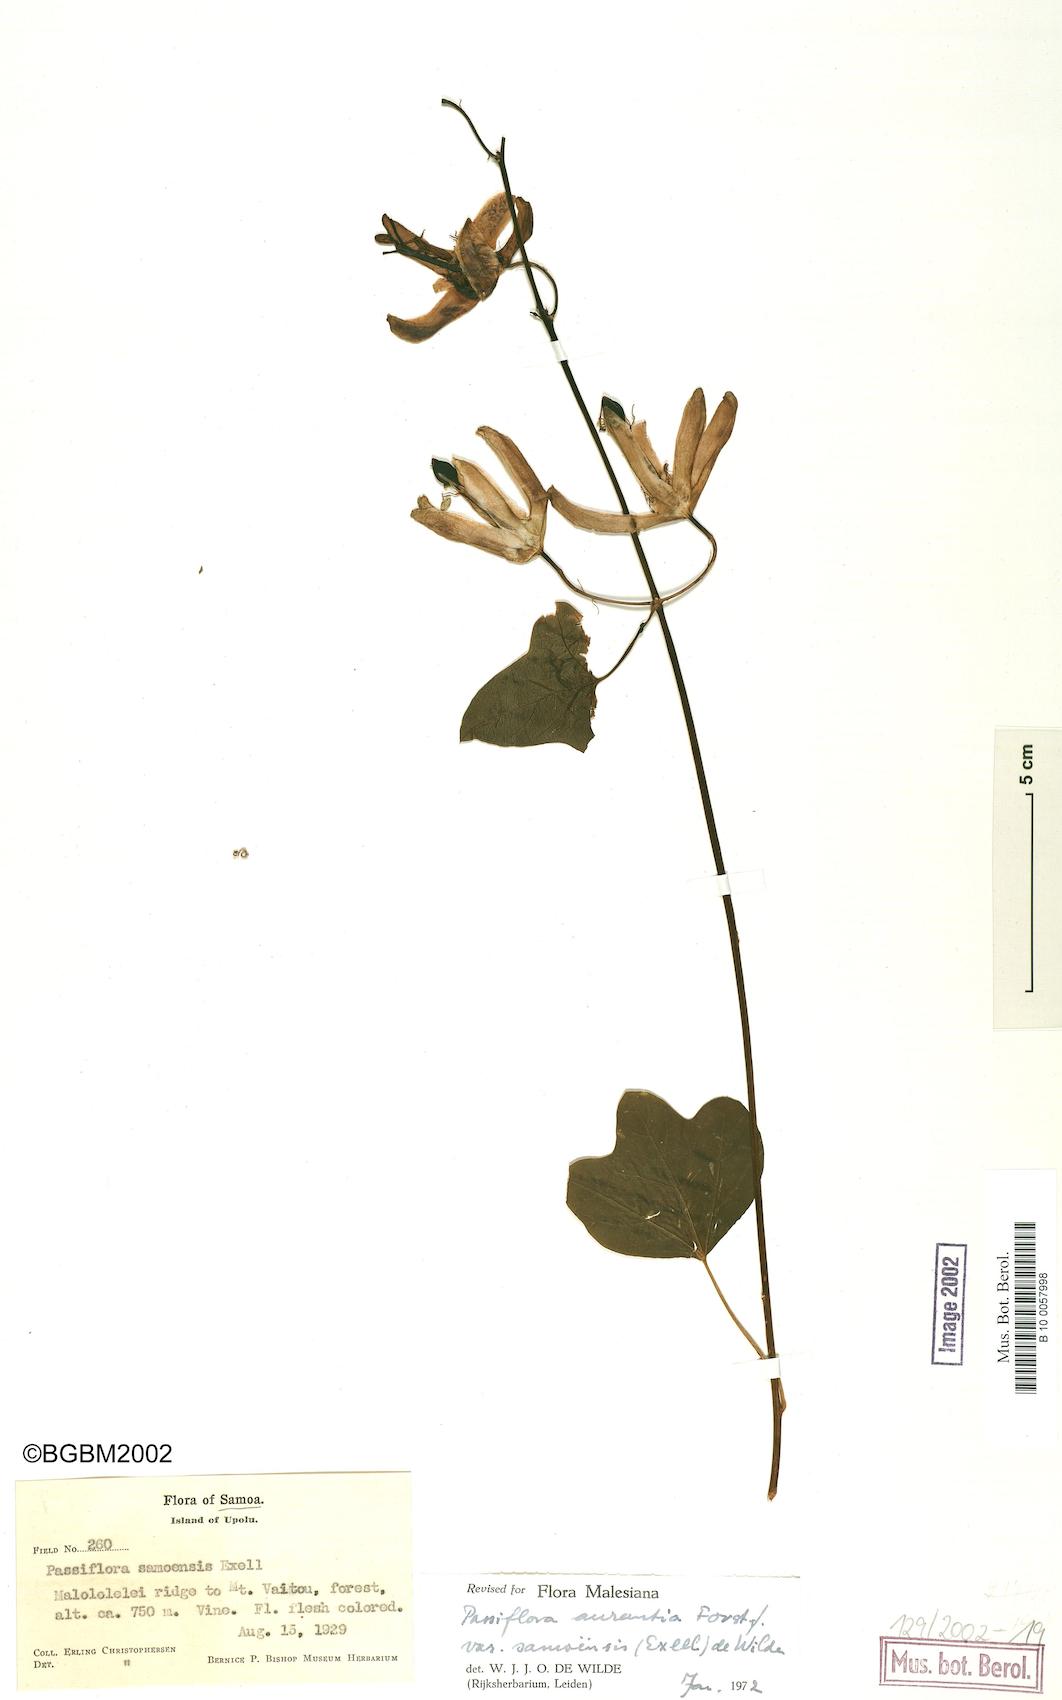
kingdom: Plantae
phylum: Tracheophyta
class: Magnoliopsida
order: Malpighiales
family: Passifloraceae
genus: Passiflora
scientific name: Passiflora aurantia
